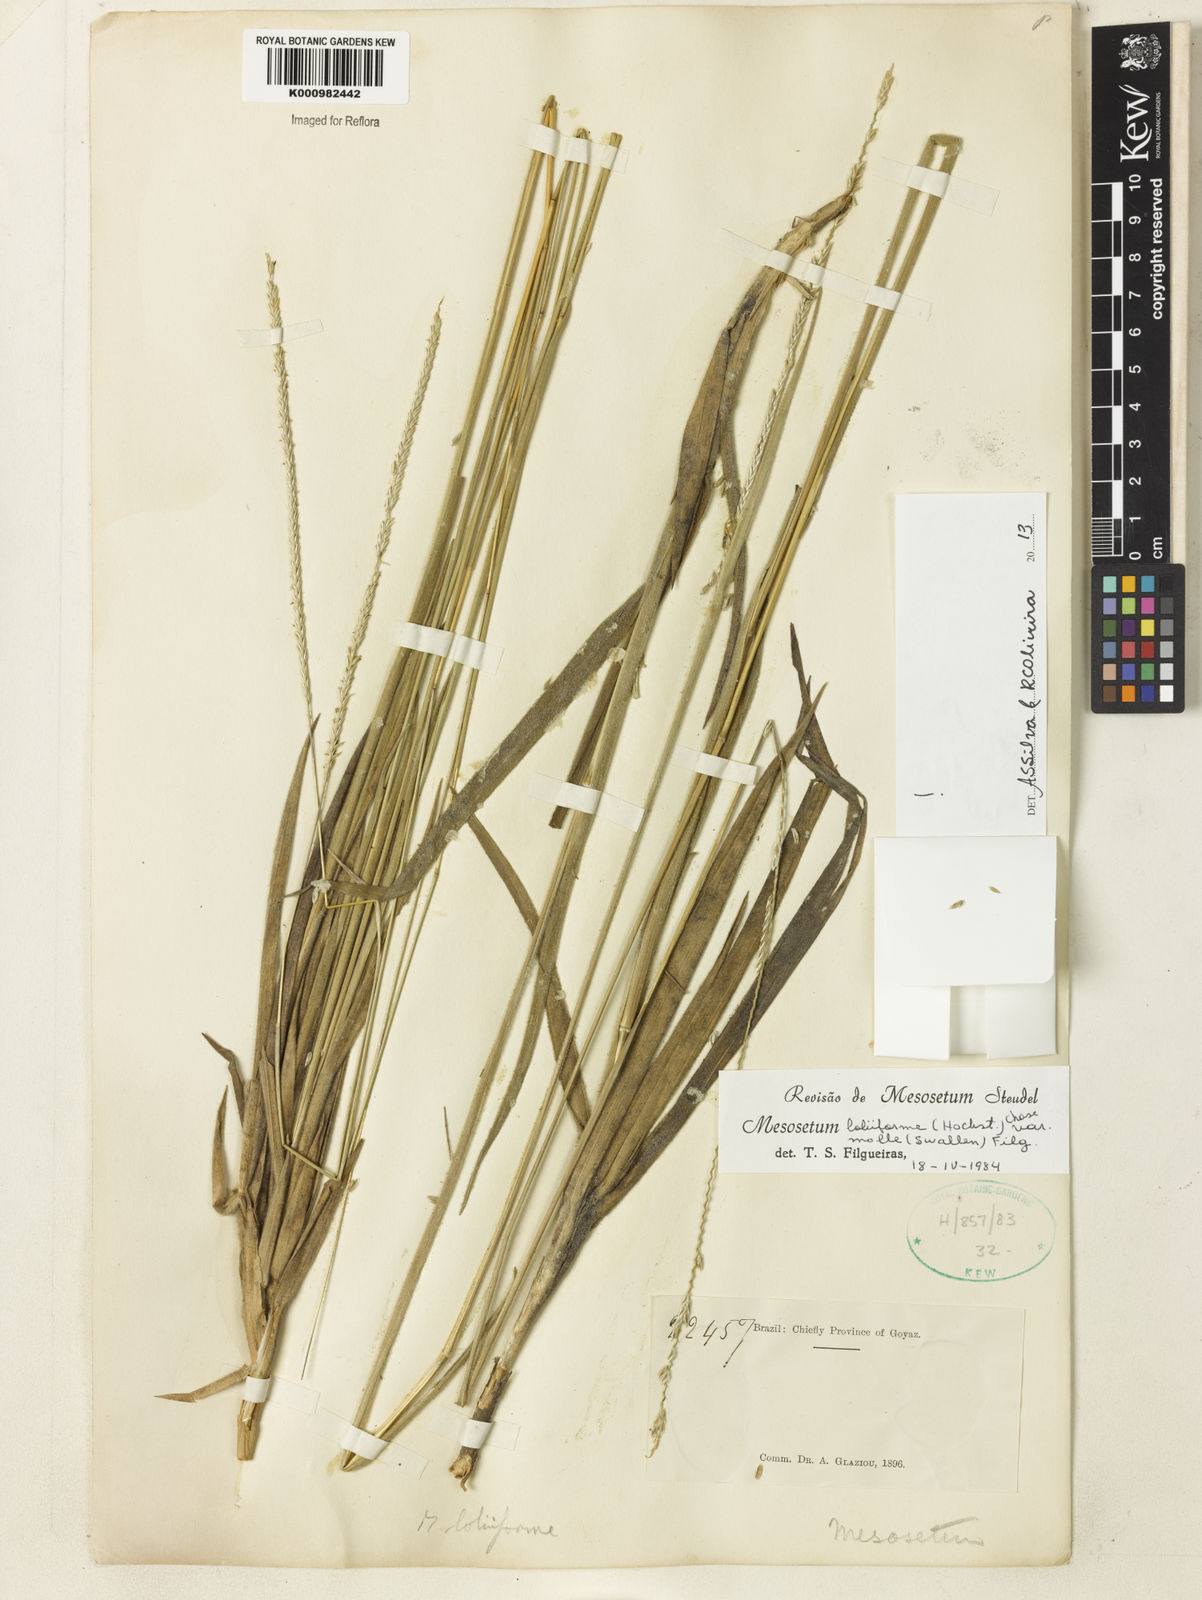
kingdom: Plantae
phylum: Tracheophyta
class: Liliopsida
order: Poales
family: Poaceae
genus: Mesosetum
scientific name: Mesosetum
